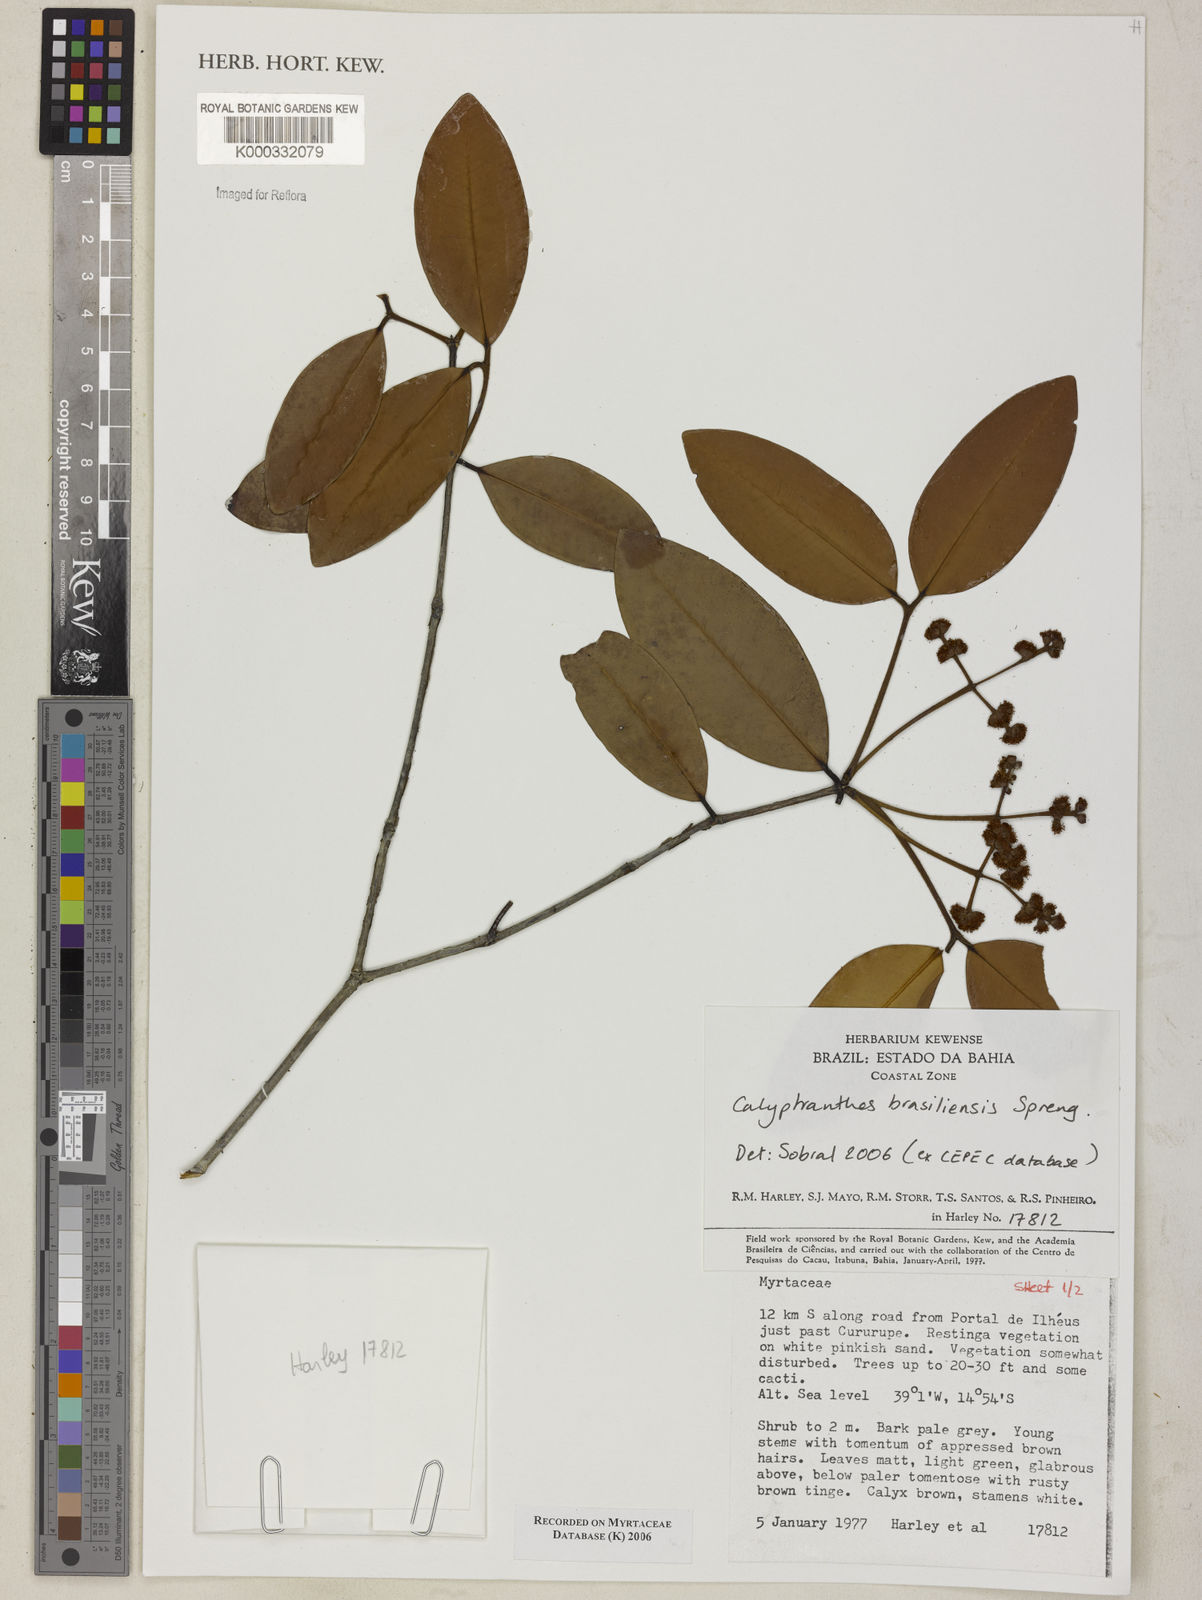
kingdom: Plantae
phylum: Tracheophyta
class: Magnoliopsida
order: Myrtales
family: Myrtaceae
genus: Calyptranthes
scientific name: Calyptranthes
